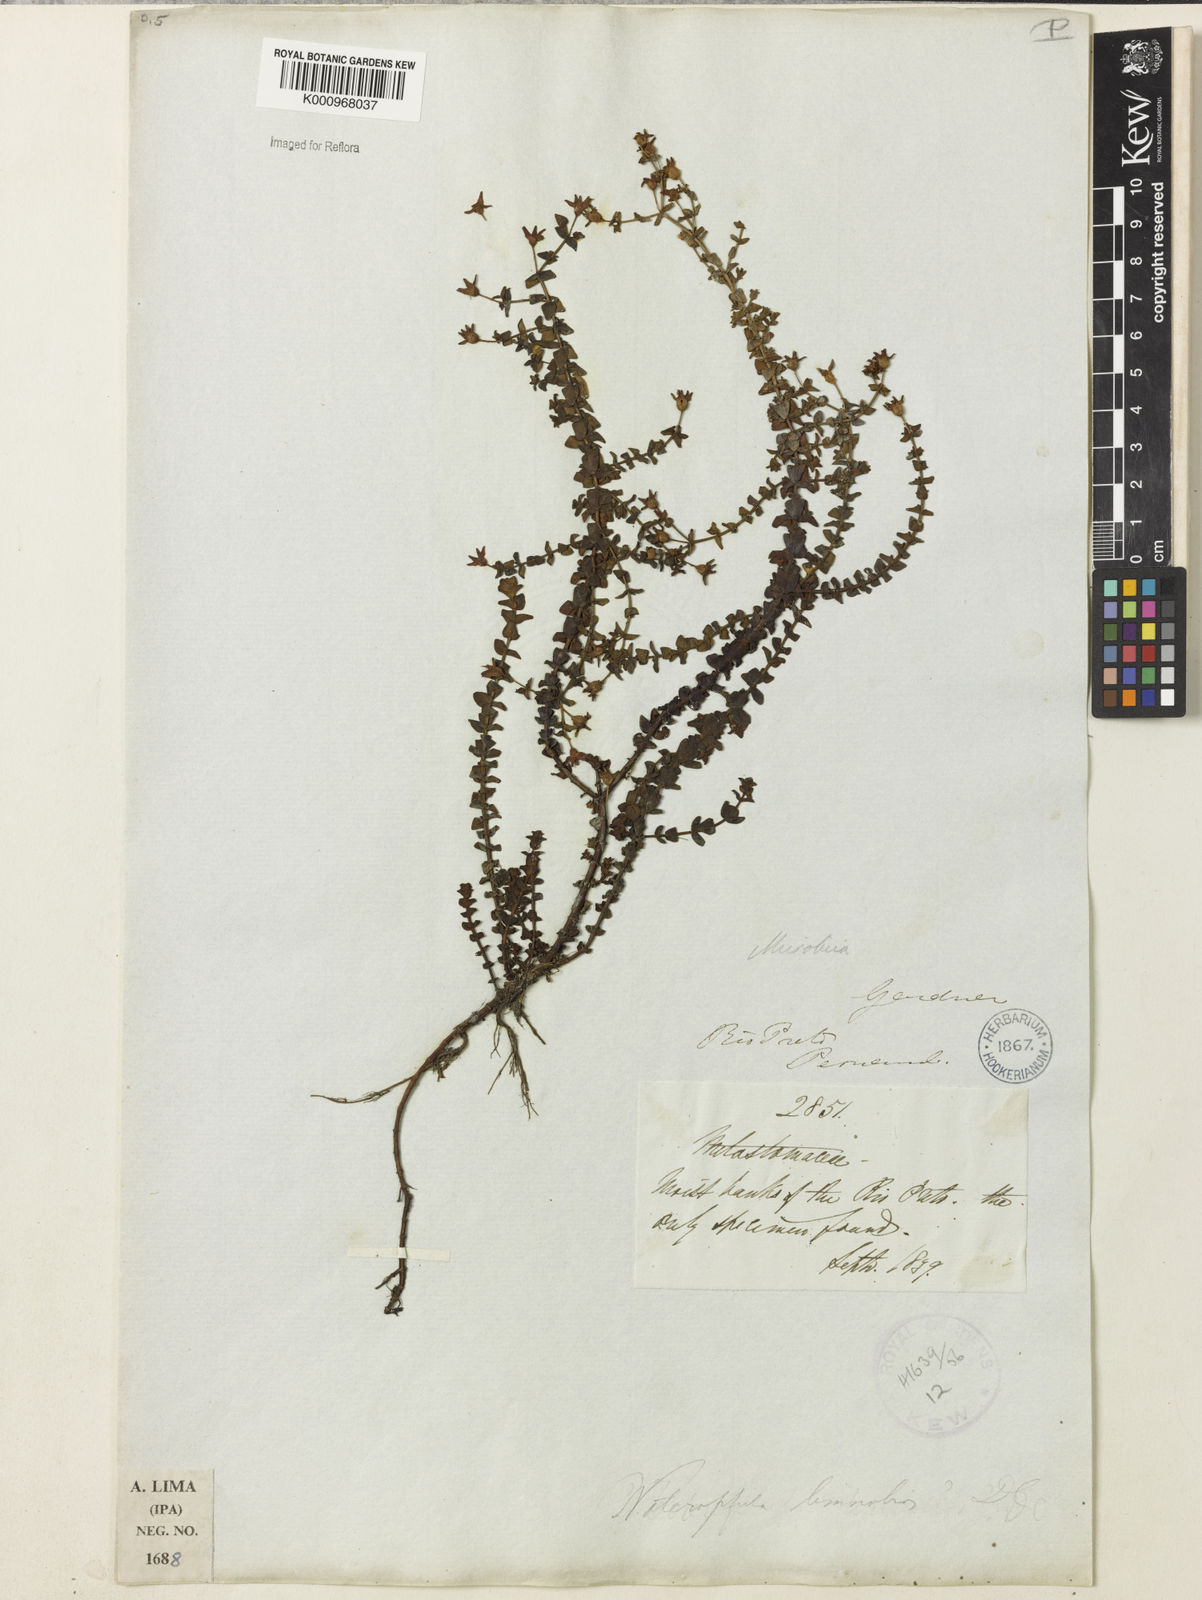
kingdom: Plantae
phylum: Tracheophyta
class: Magnoliopsida
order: Myrtales
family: Melastomataceae
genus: Noterophila
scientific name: Noterophila limnobios
